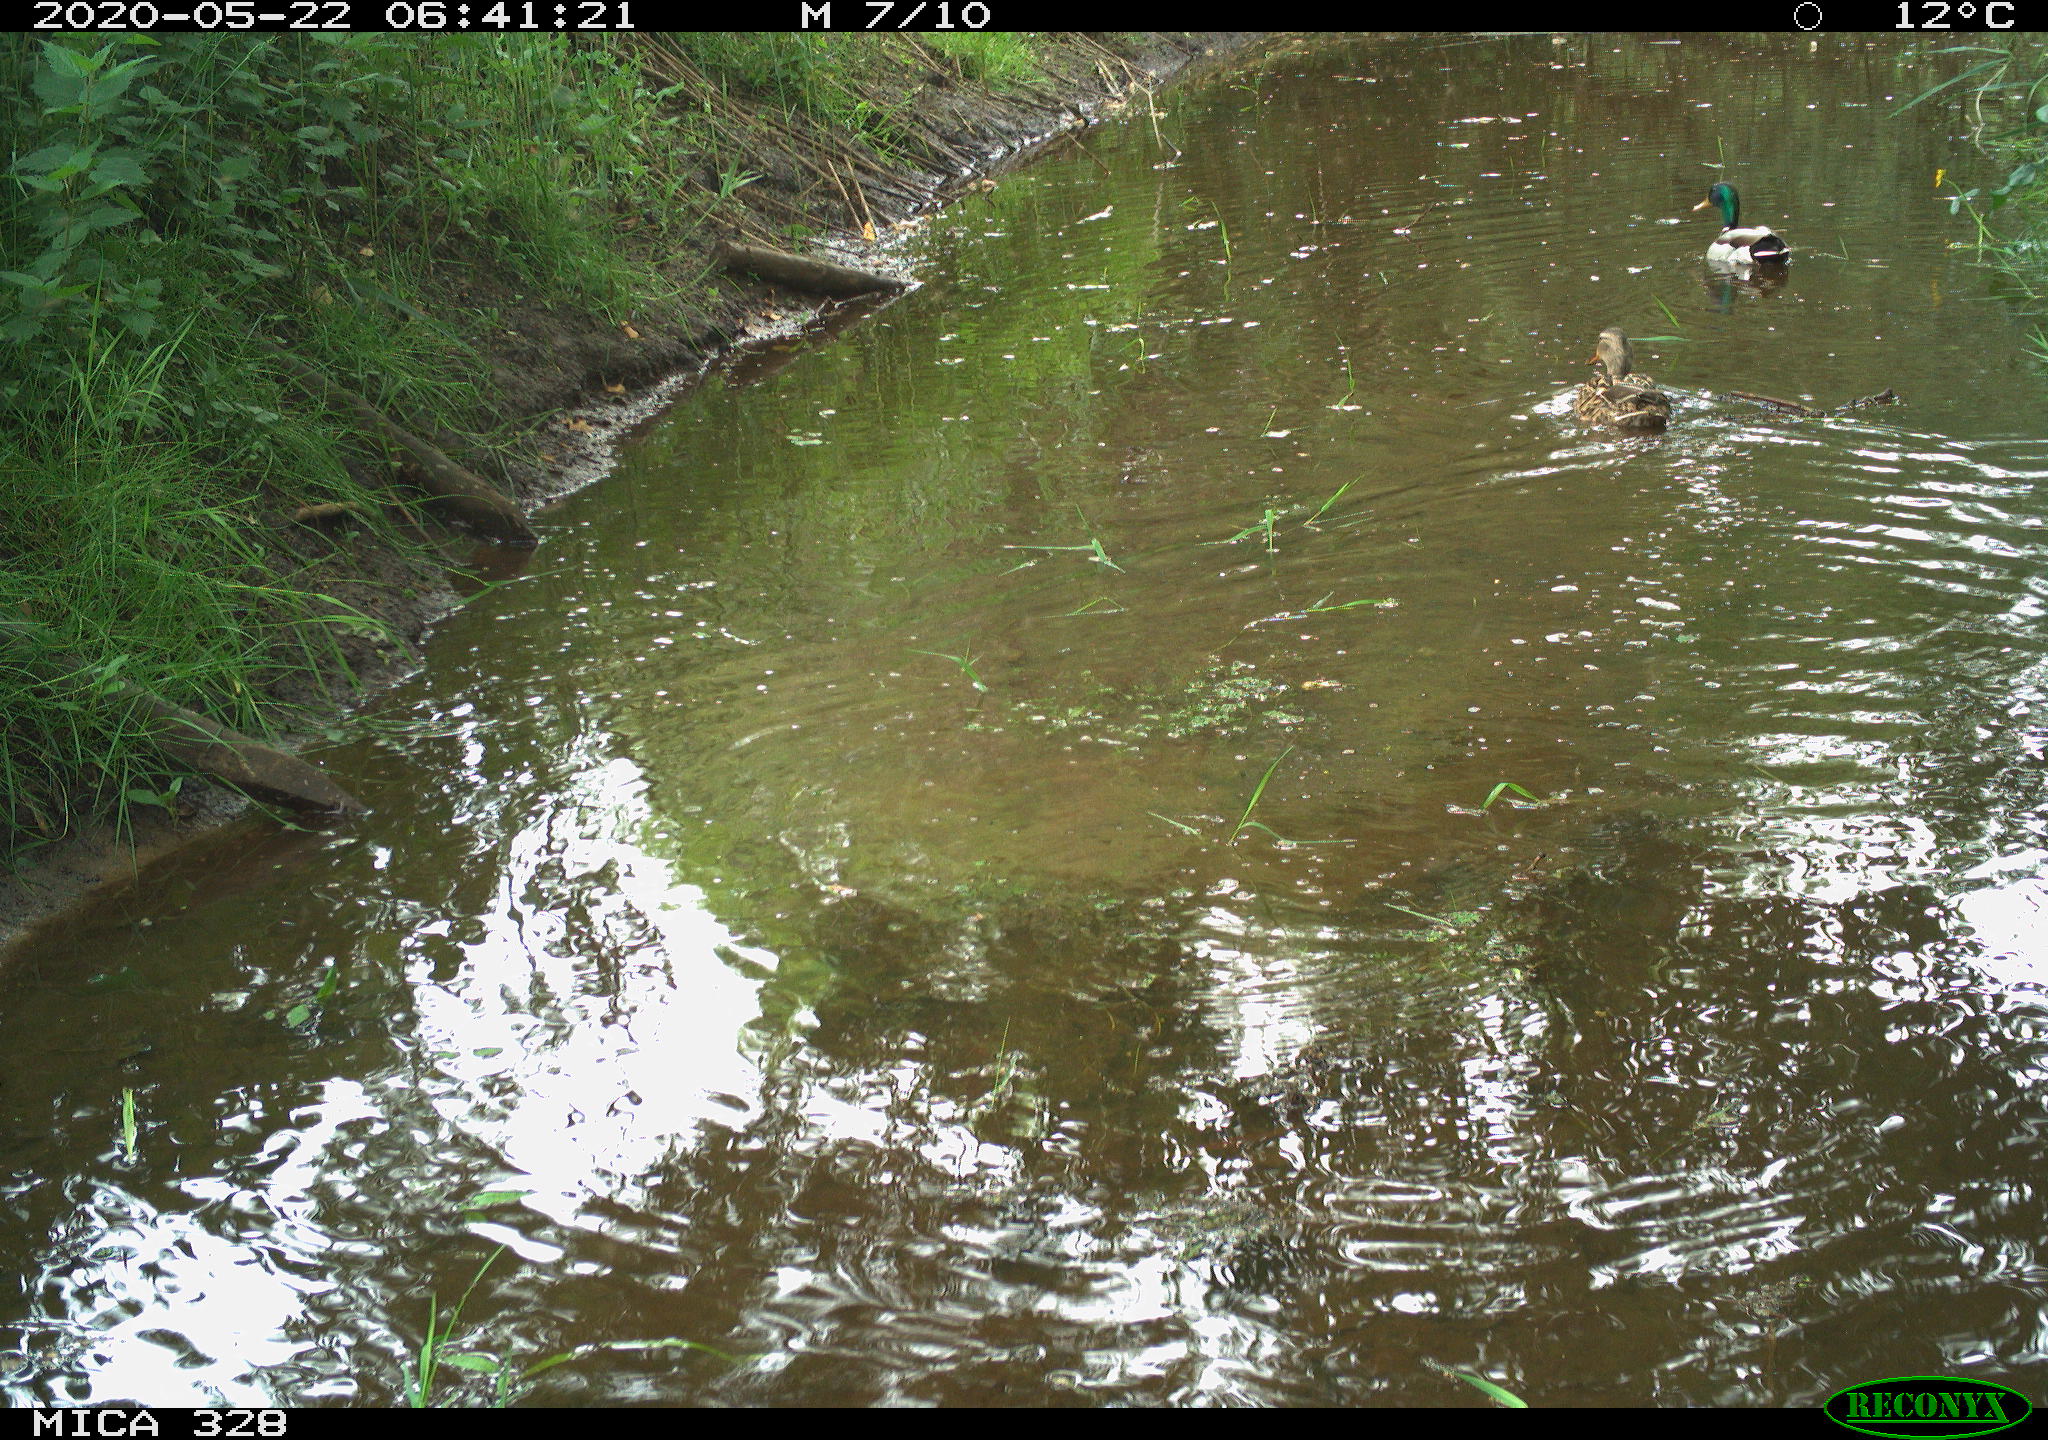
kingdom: Animalia
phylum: Chordata
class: Aves
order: Anseriformes
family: Anatidae
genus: Anas
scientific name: Anas platyrhynchos
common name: Mallard
